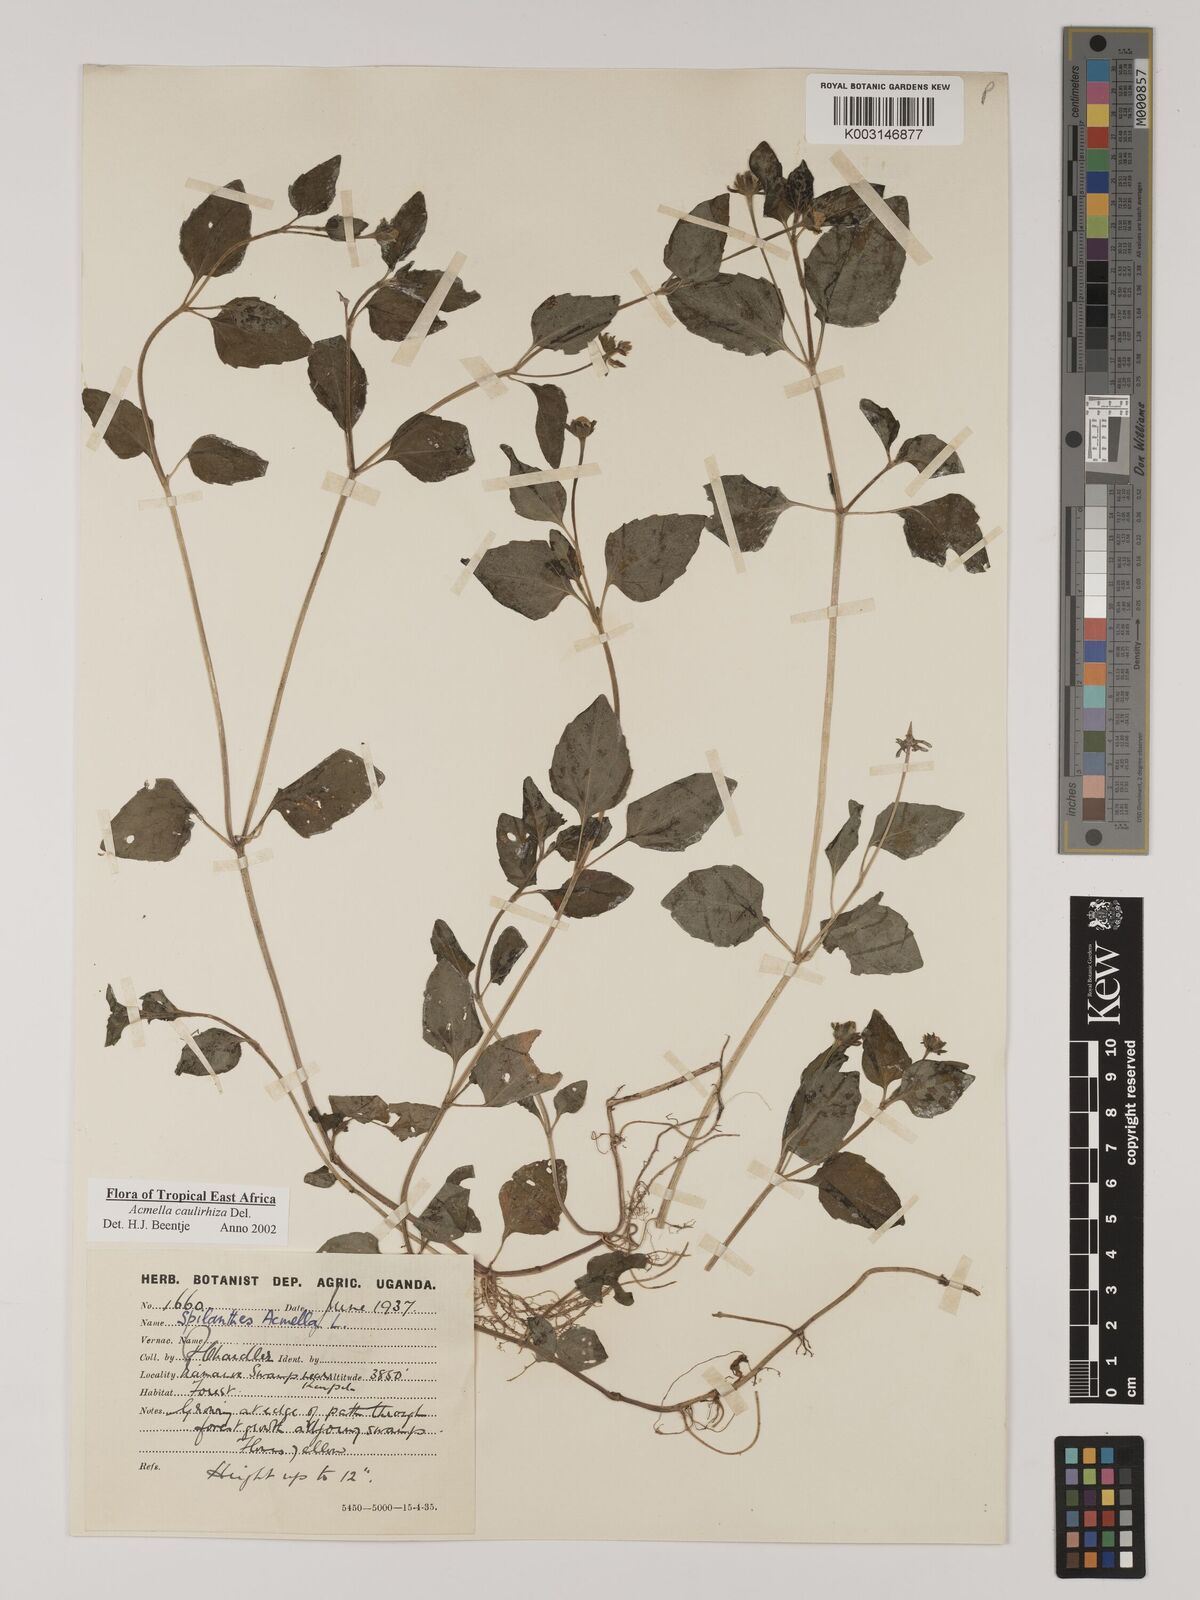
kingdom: Plantae
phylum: Tracheophyta
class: Magnoliopsida
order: Asterales
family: Asteraceae
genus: Acmella
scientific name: Acmella caulirhiza
